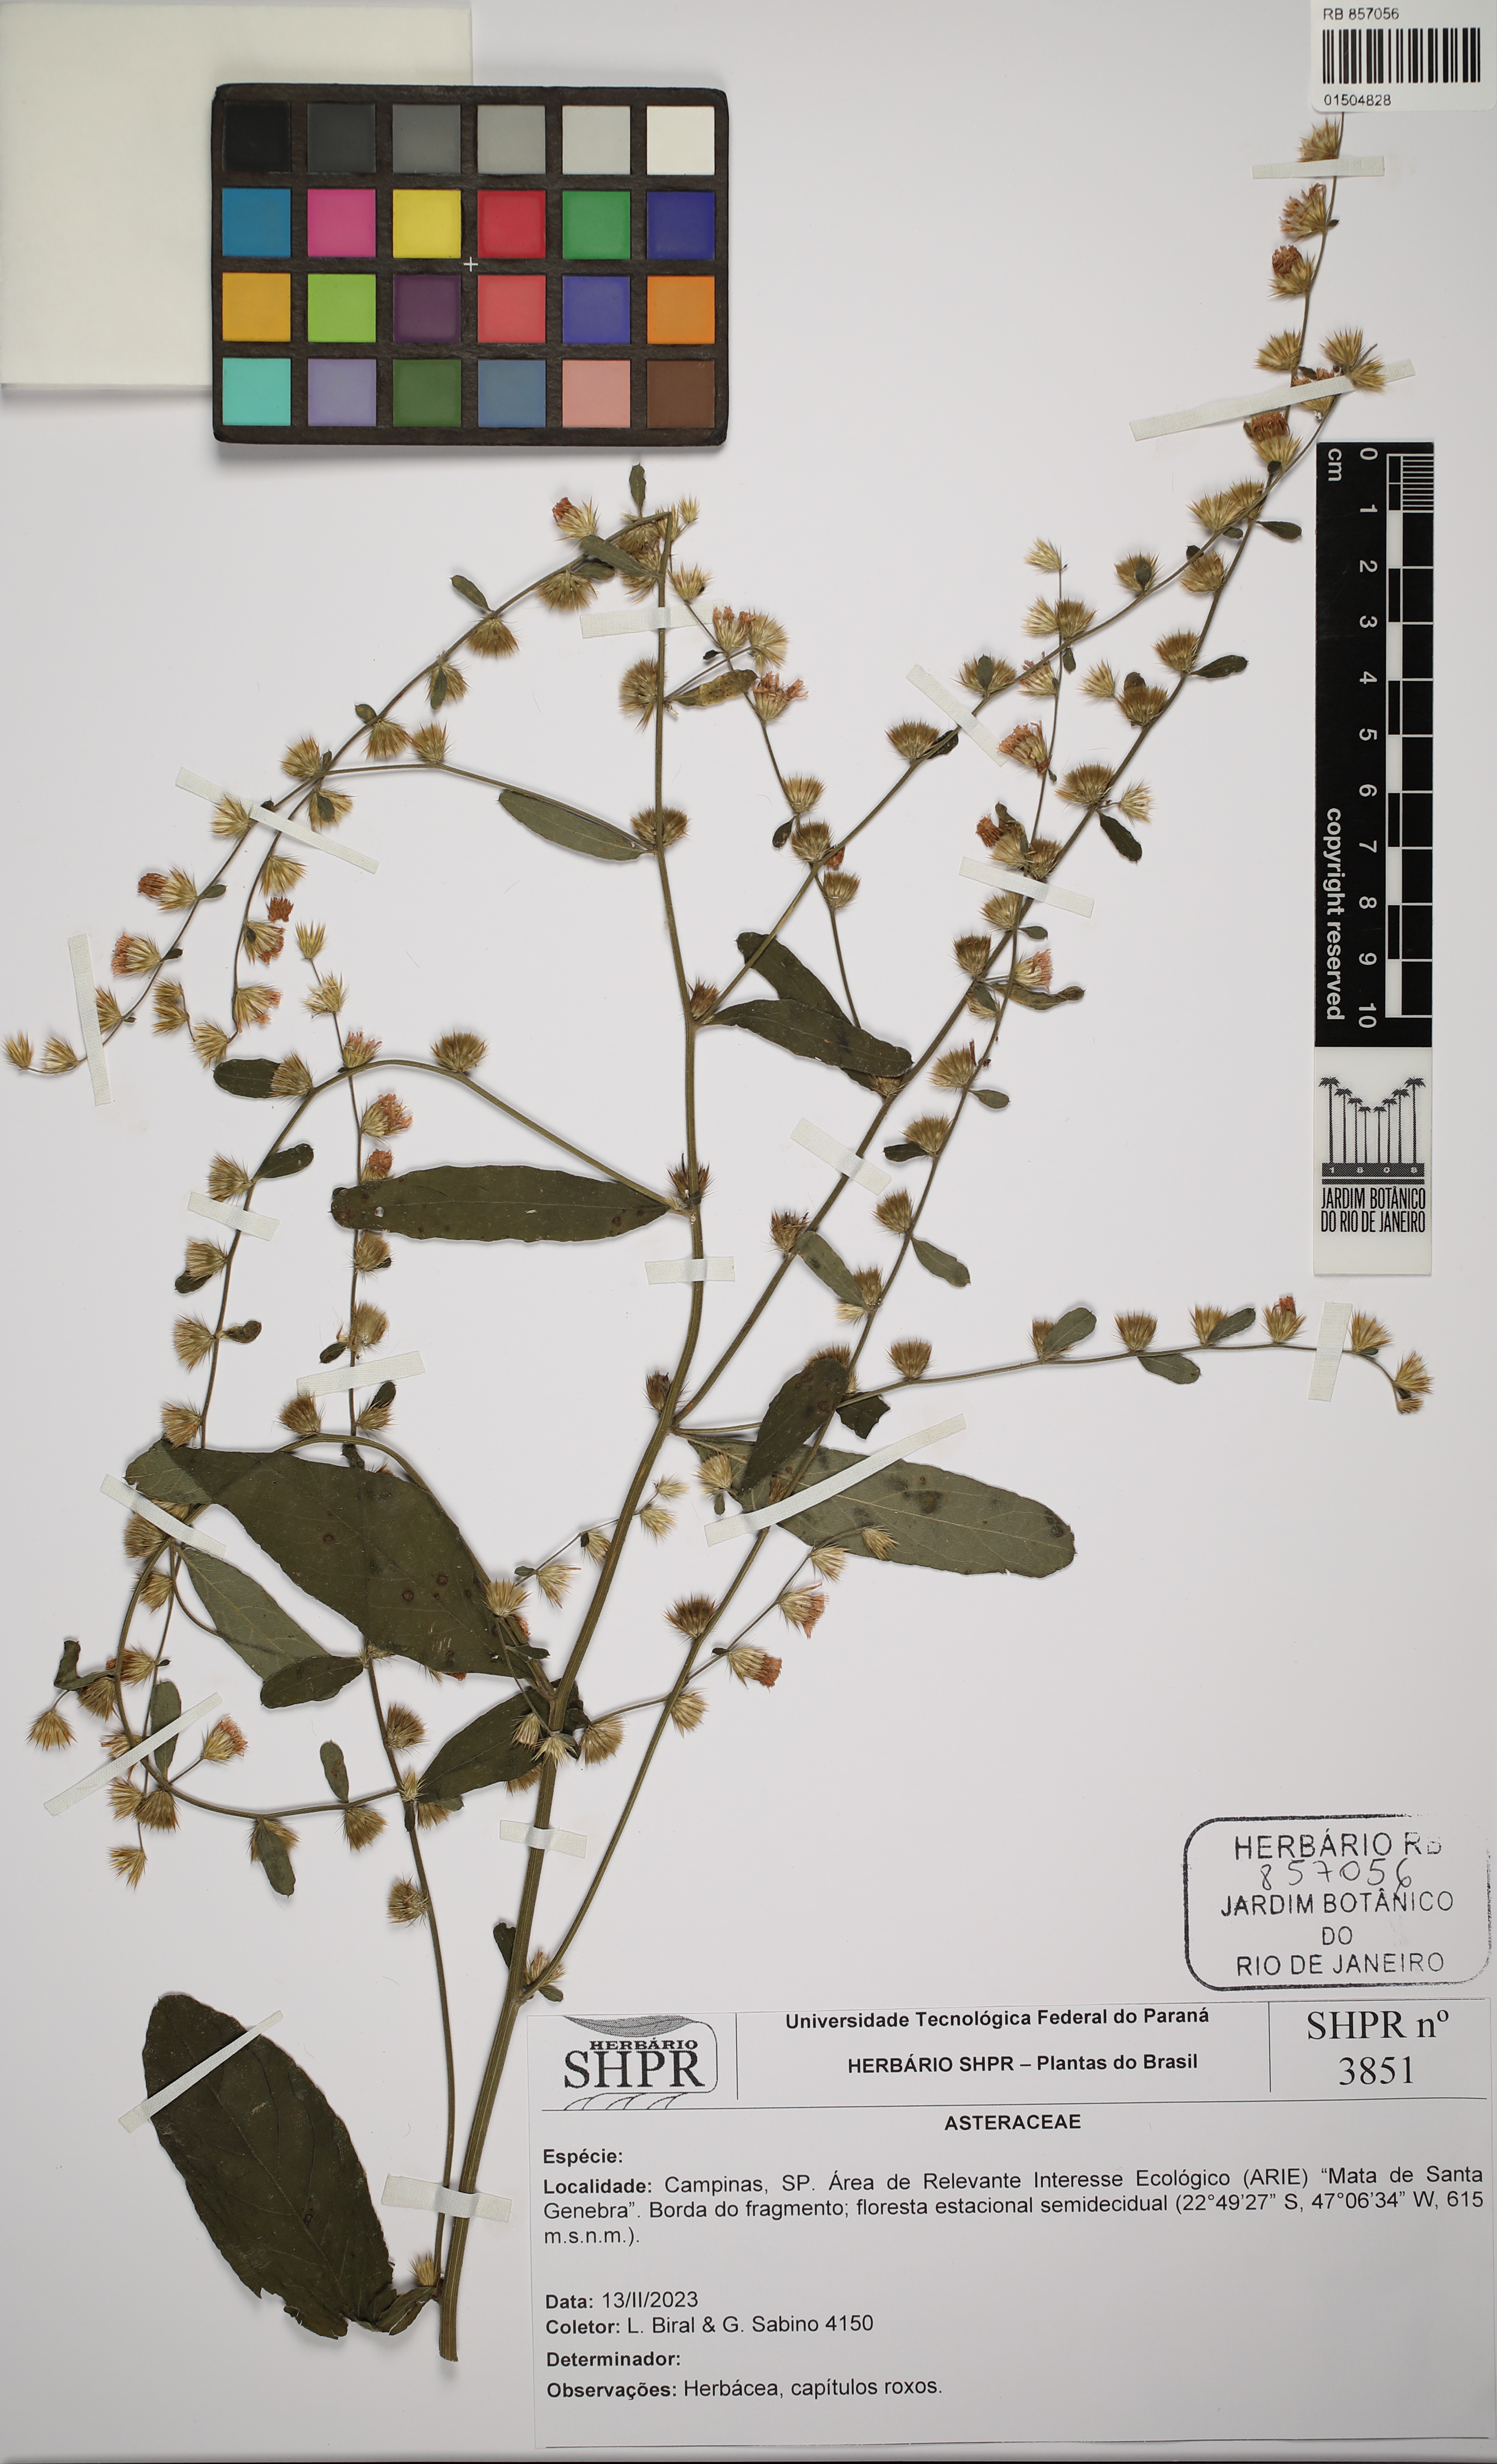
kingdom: Plantae
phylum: Tracheophyta
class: Magnoliopsida
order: Asterales
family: Asteraceae
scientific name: Asteraceae
